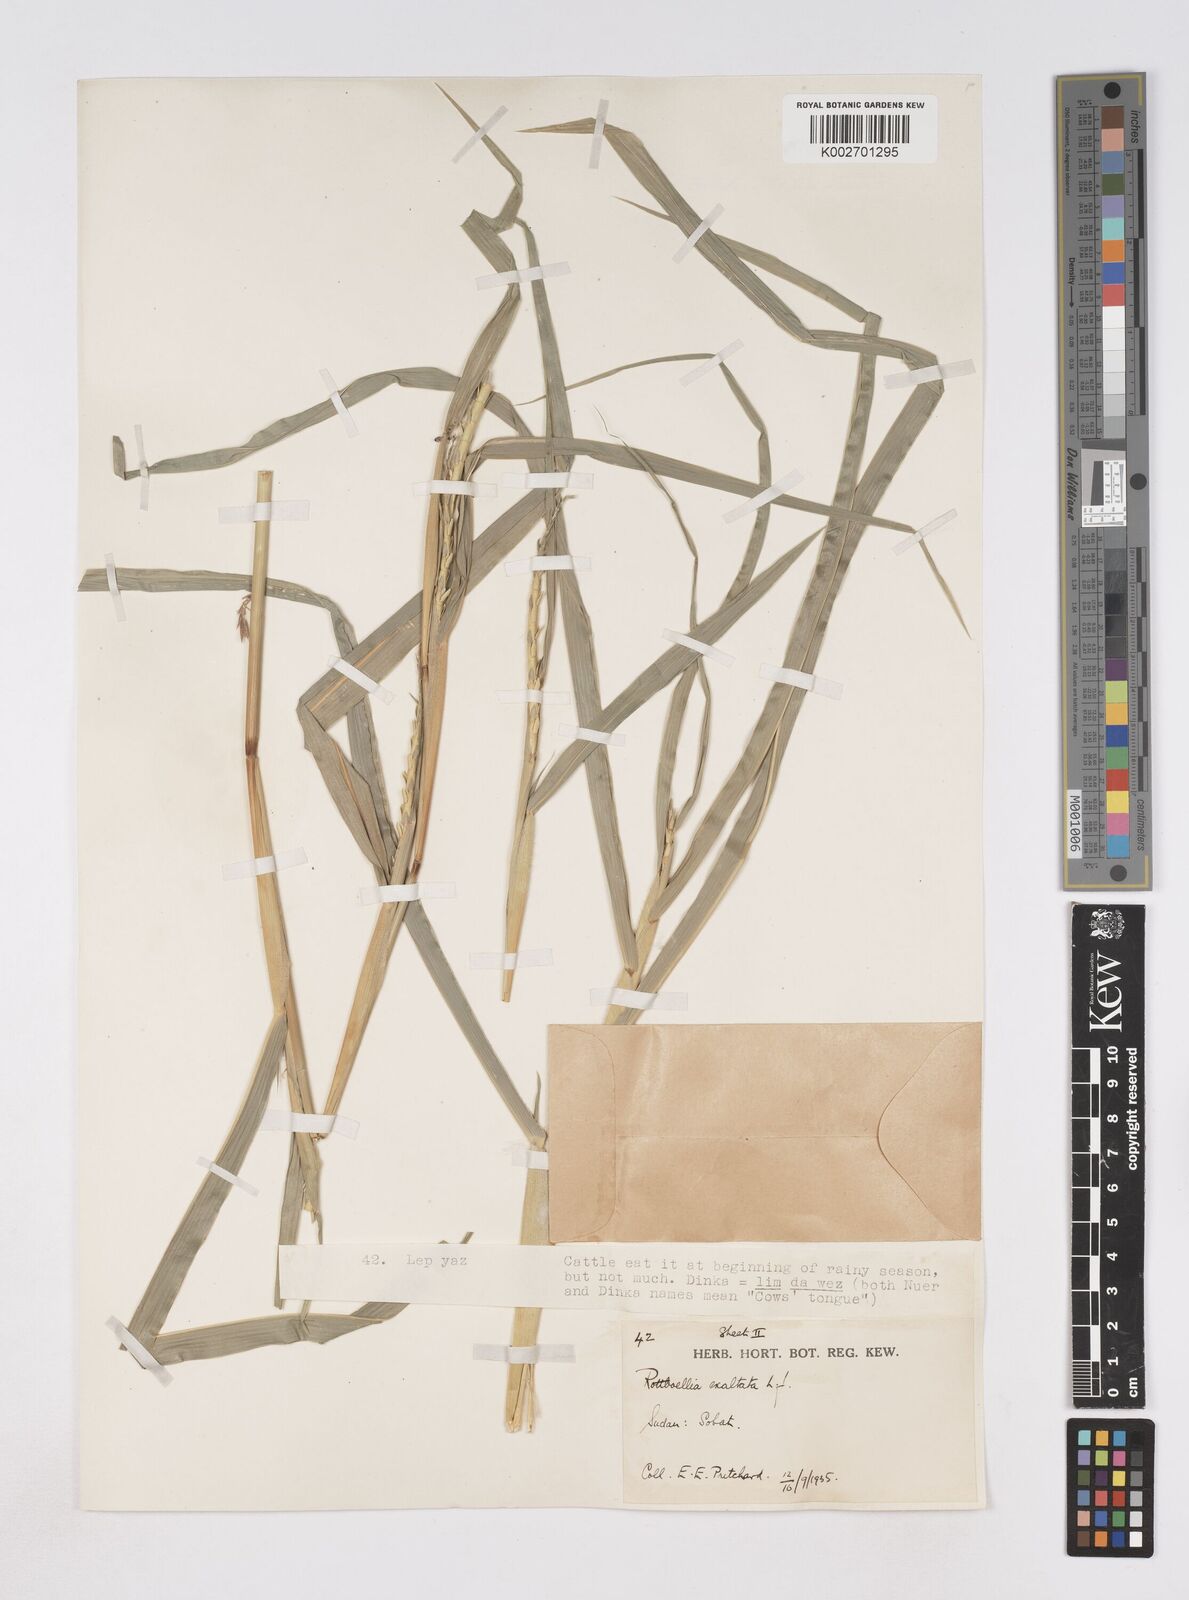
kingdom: Plantae
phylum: Tracheophyta
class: Liliopsida
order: Poales
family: Poaceae
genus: Rottboellia
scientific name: Rottboellia cochinchinensis
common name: Itchgrass
